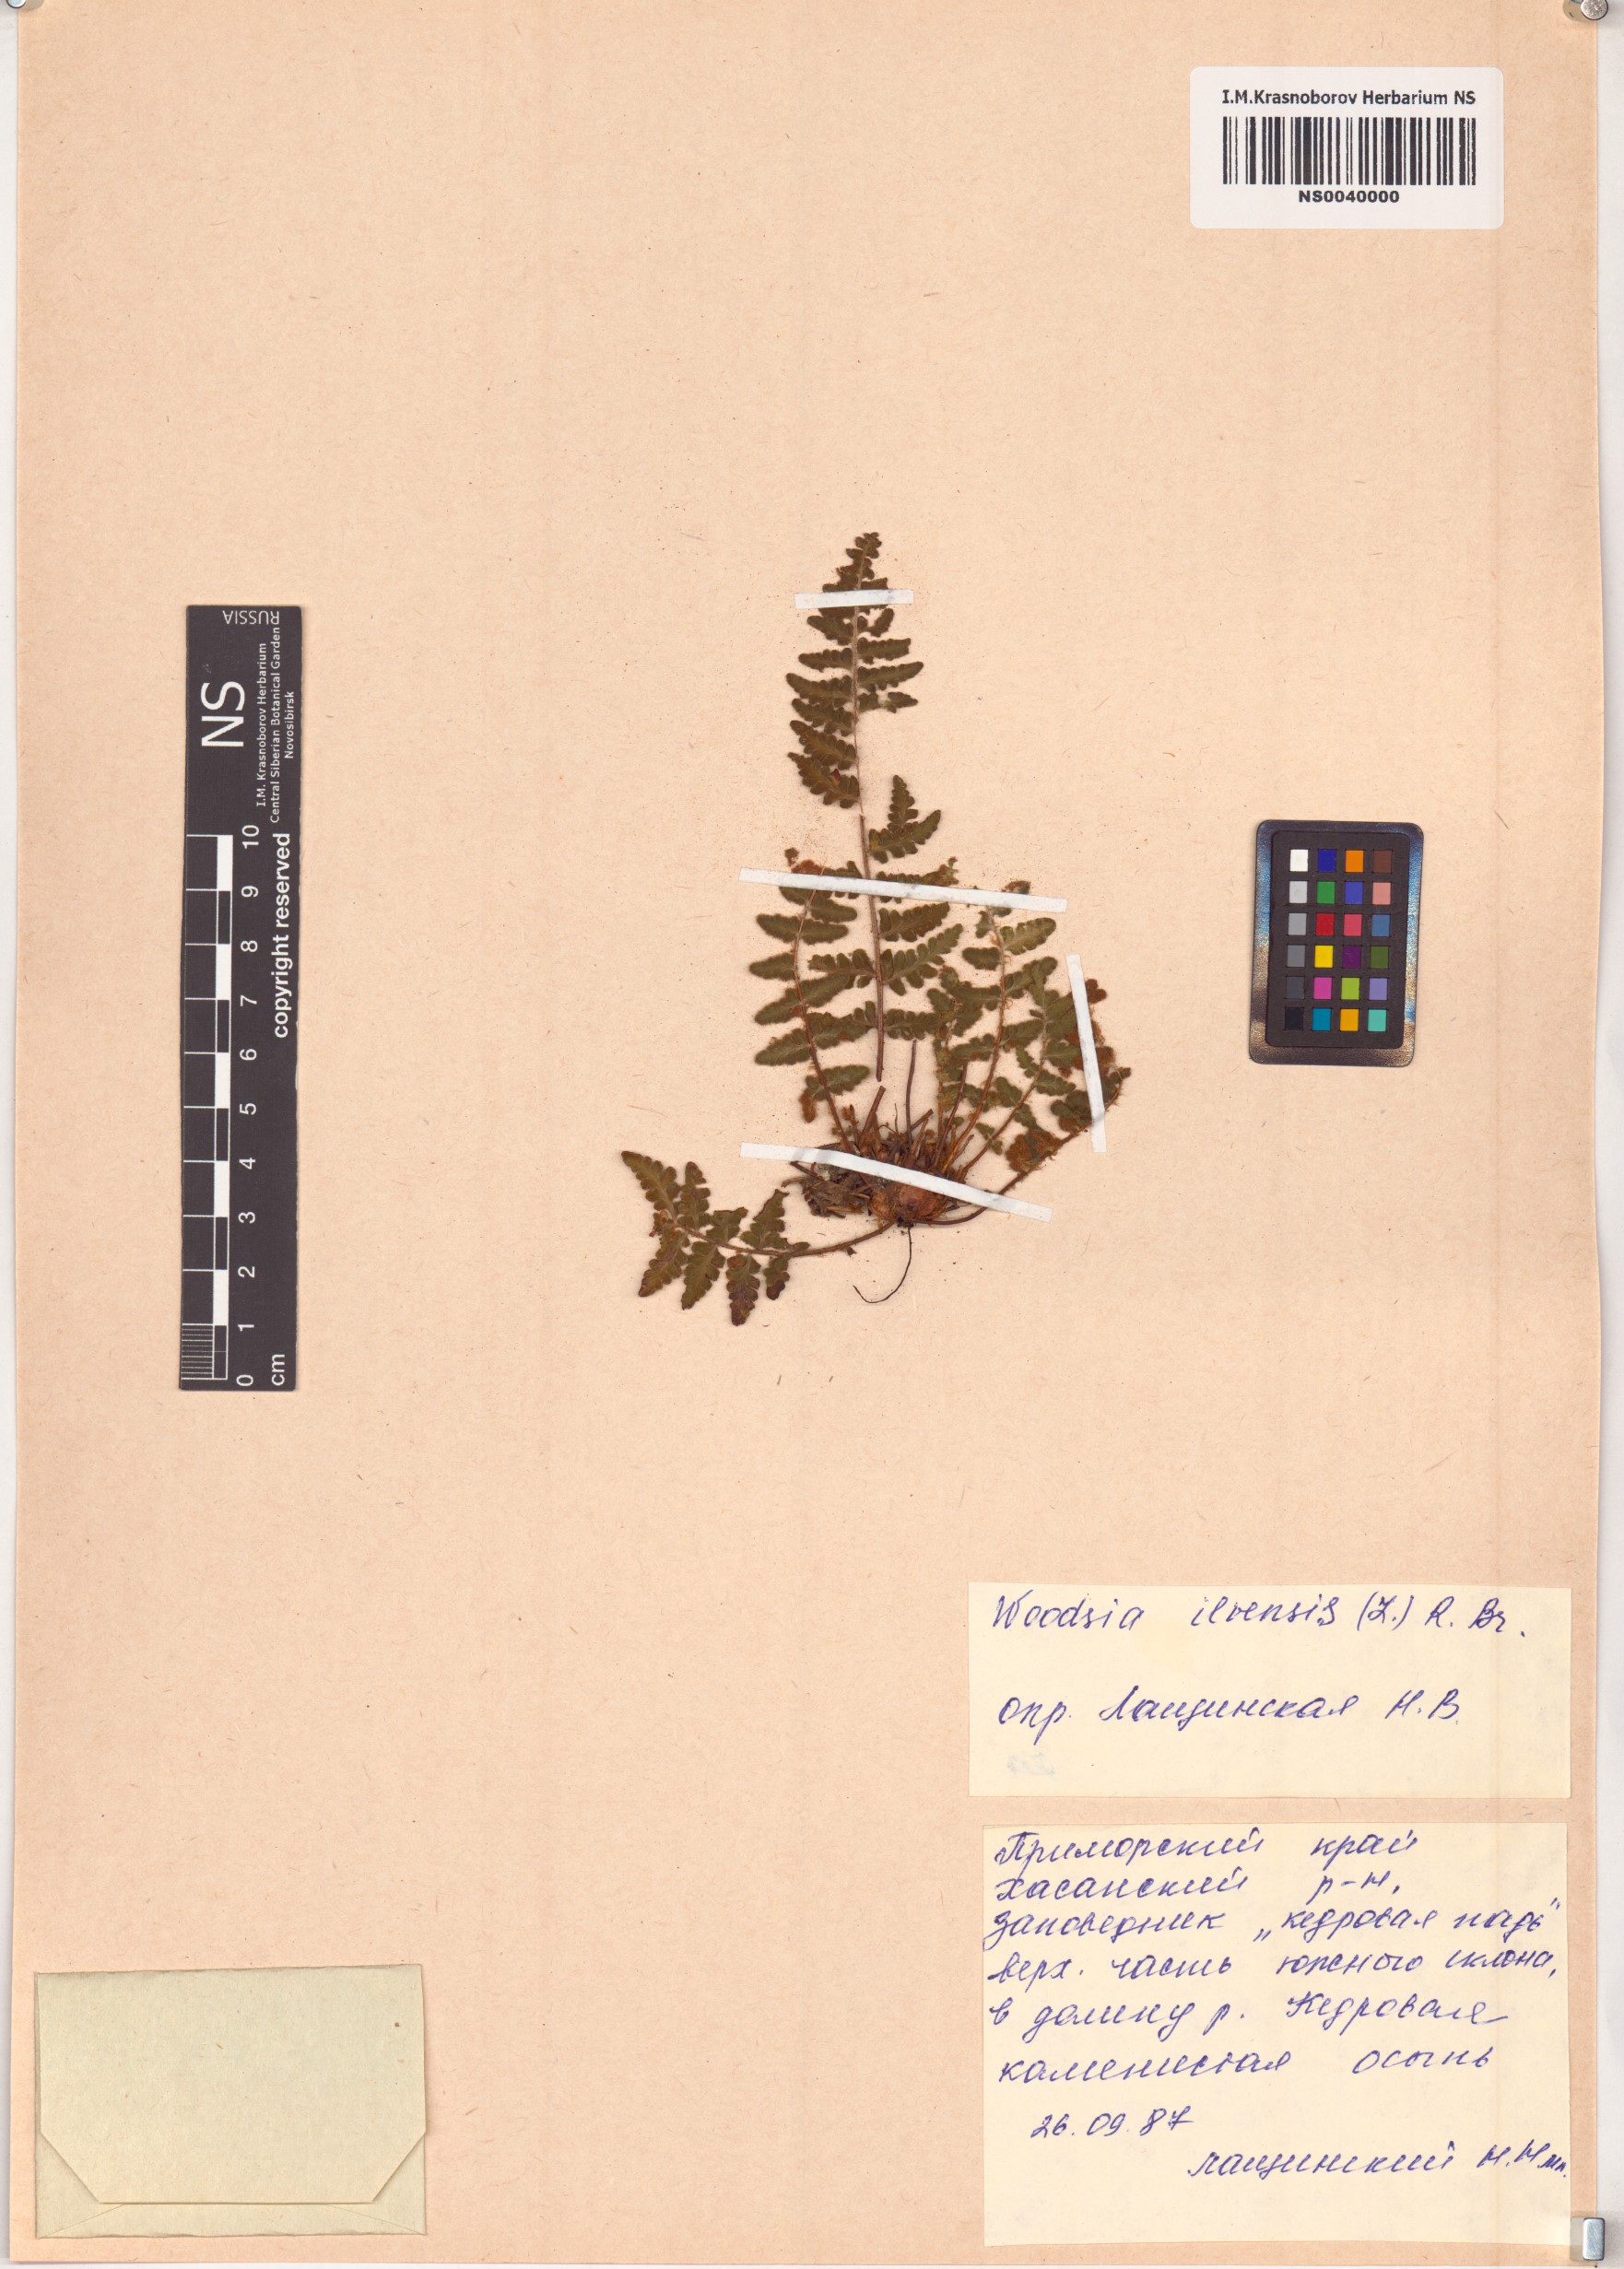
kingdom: Plantae
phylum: Tracheophyta
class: Polypodiopsida
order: Polypodiales
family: Woodsiaceae
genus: Woodsia
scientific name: Woodsia ilvensis
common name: Fragrant woodsia
